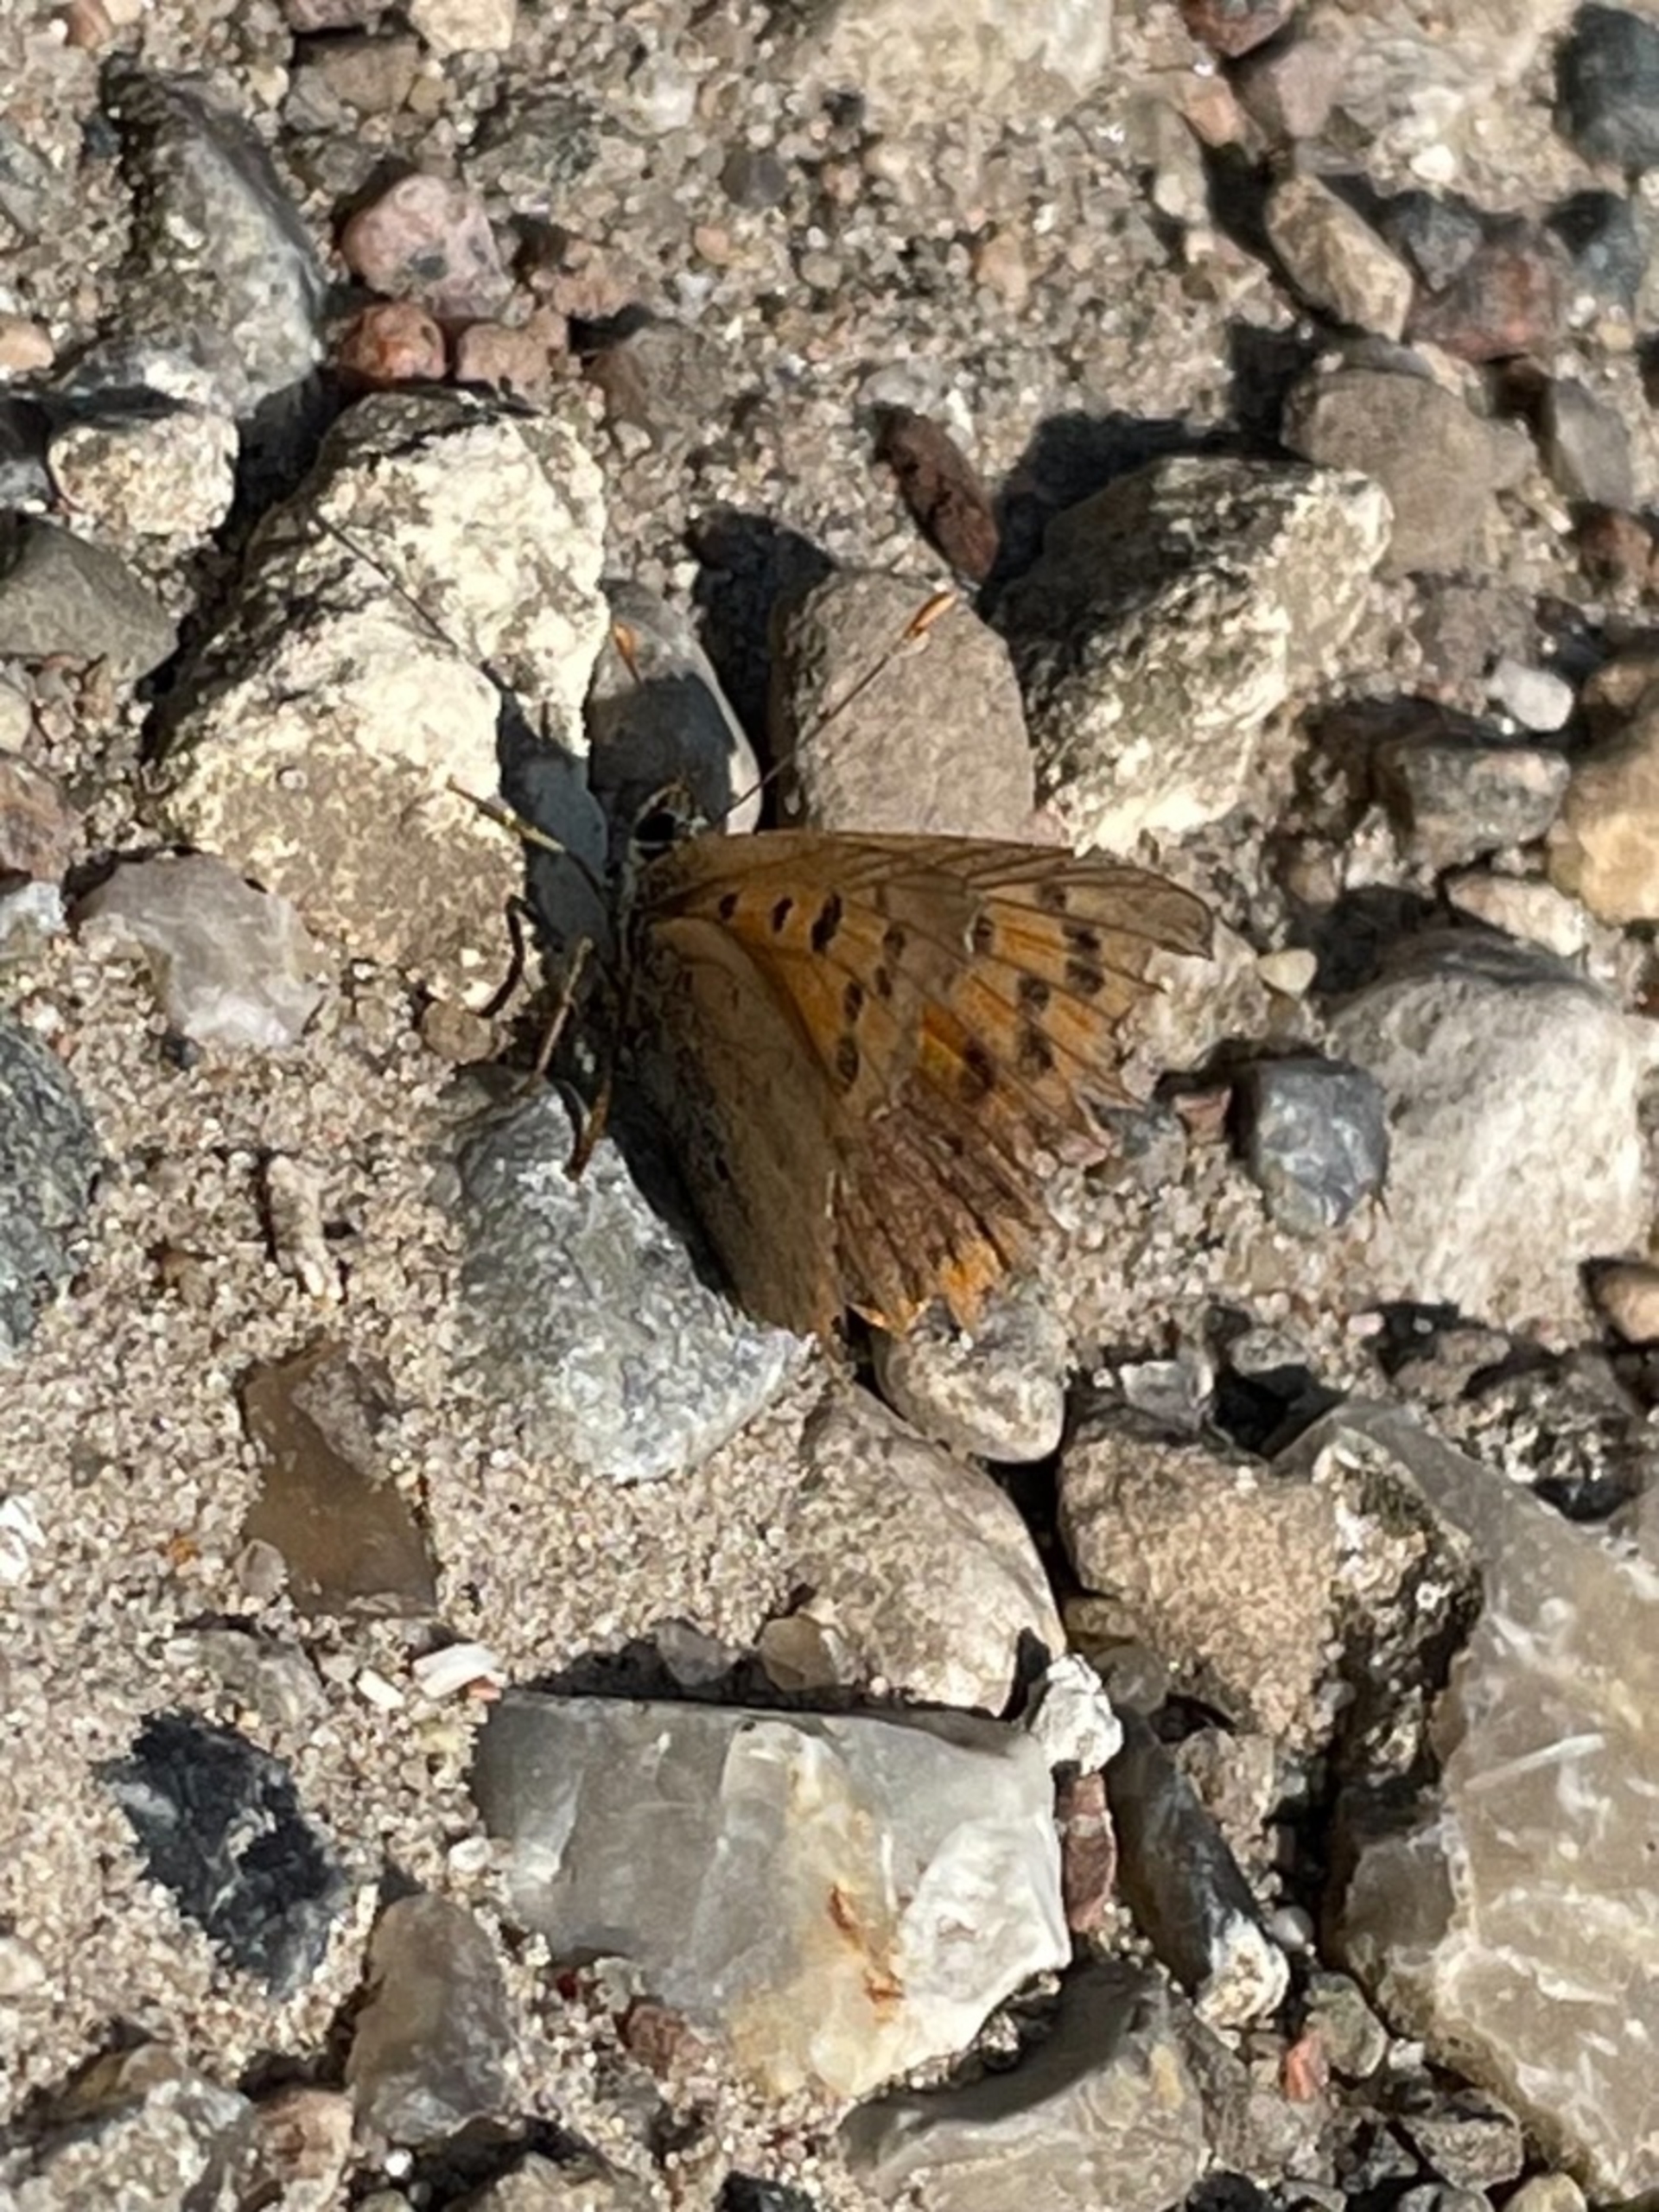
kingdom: Animalia
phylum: Arthropoda
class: Insecta
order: Lepidoptera
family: Lycaenidae
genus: Lycaena
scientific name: Lycaena phlaeas
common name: Lille ildfugl
